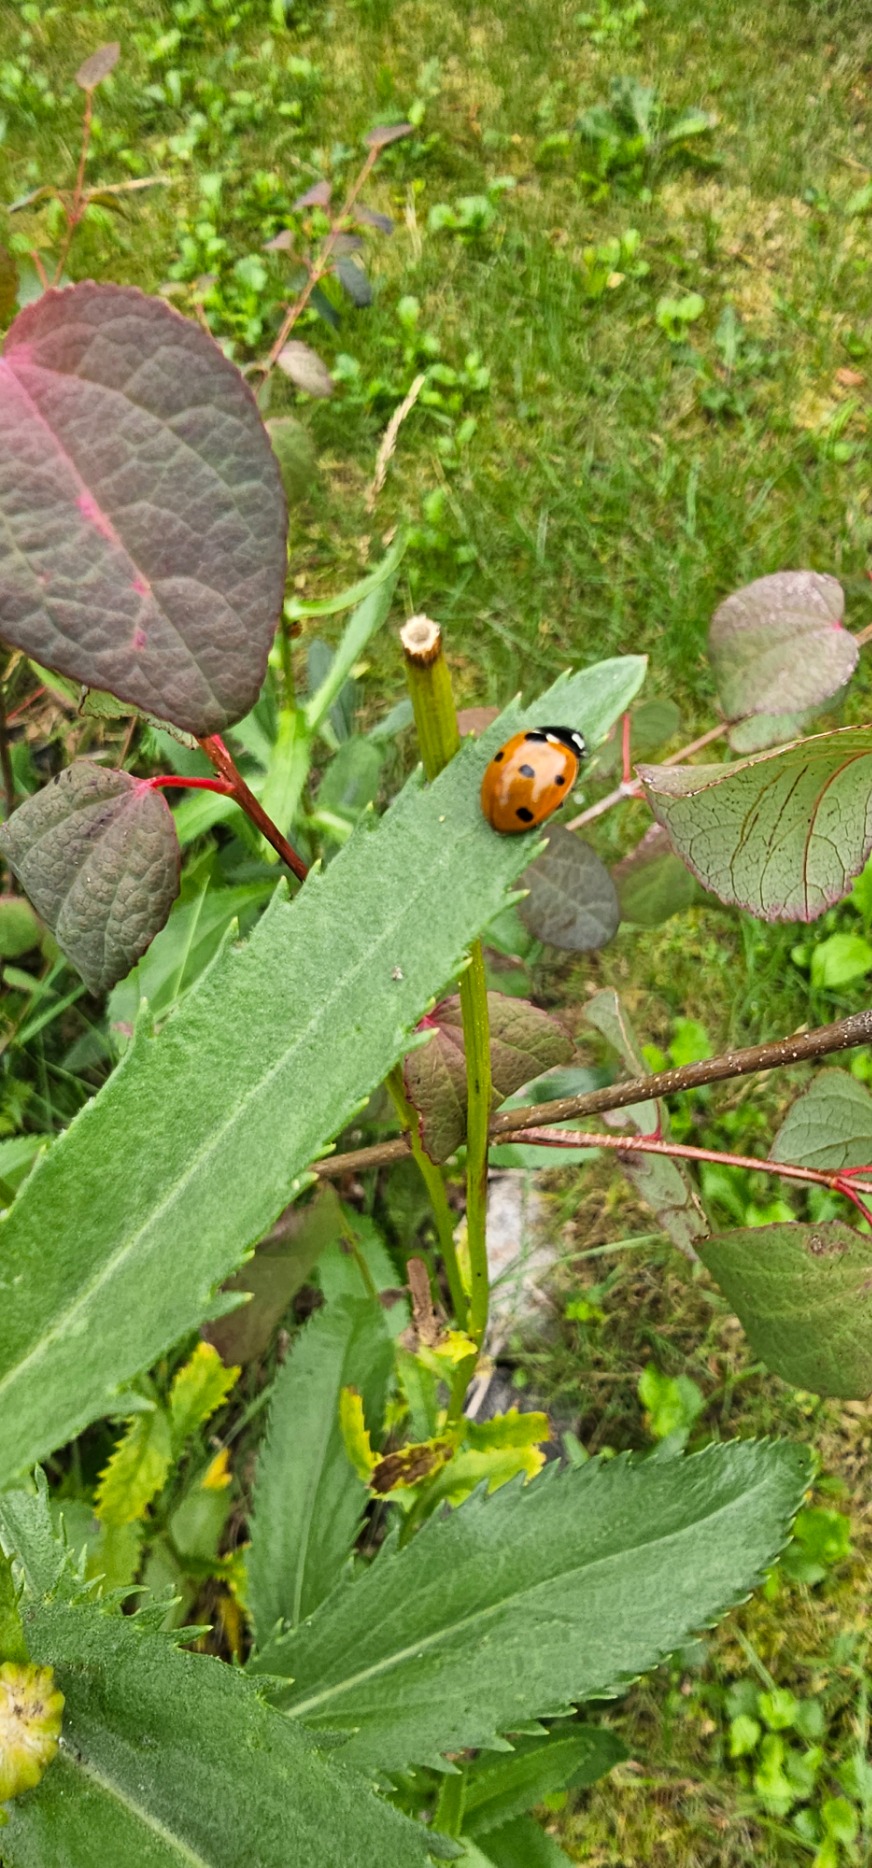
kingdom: Animalia
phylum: Arthropoda
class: Insecta
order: Coleoptera
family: Coccinellidae
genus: Coccinella
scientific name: Coccinella septempunctata
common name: Syvplettet mariehøne
